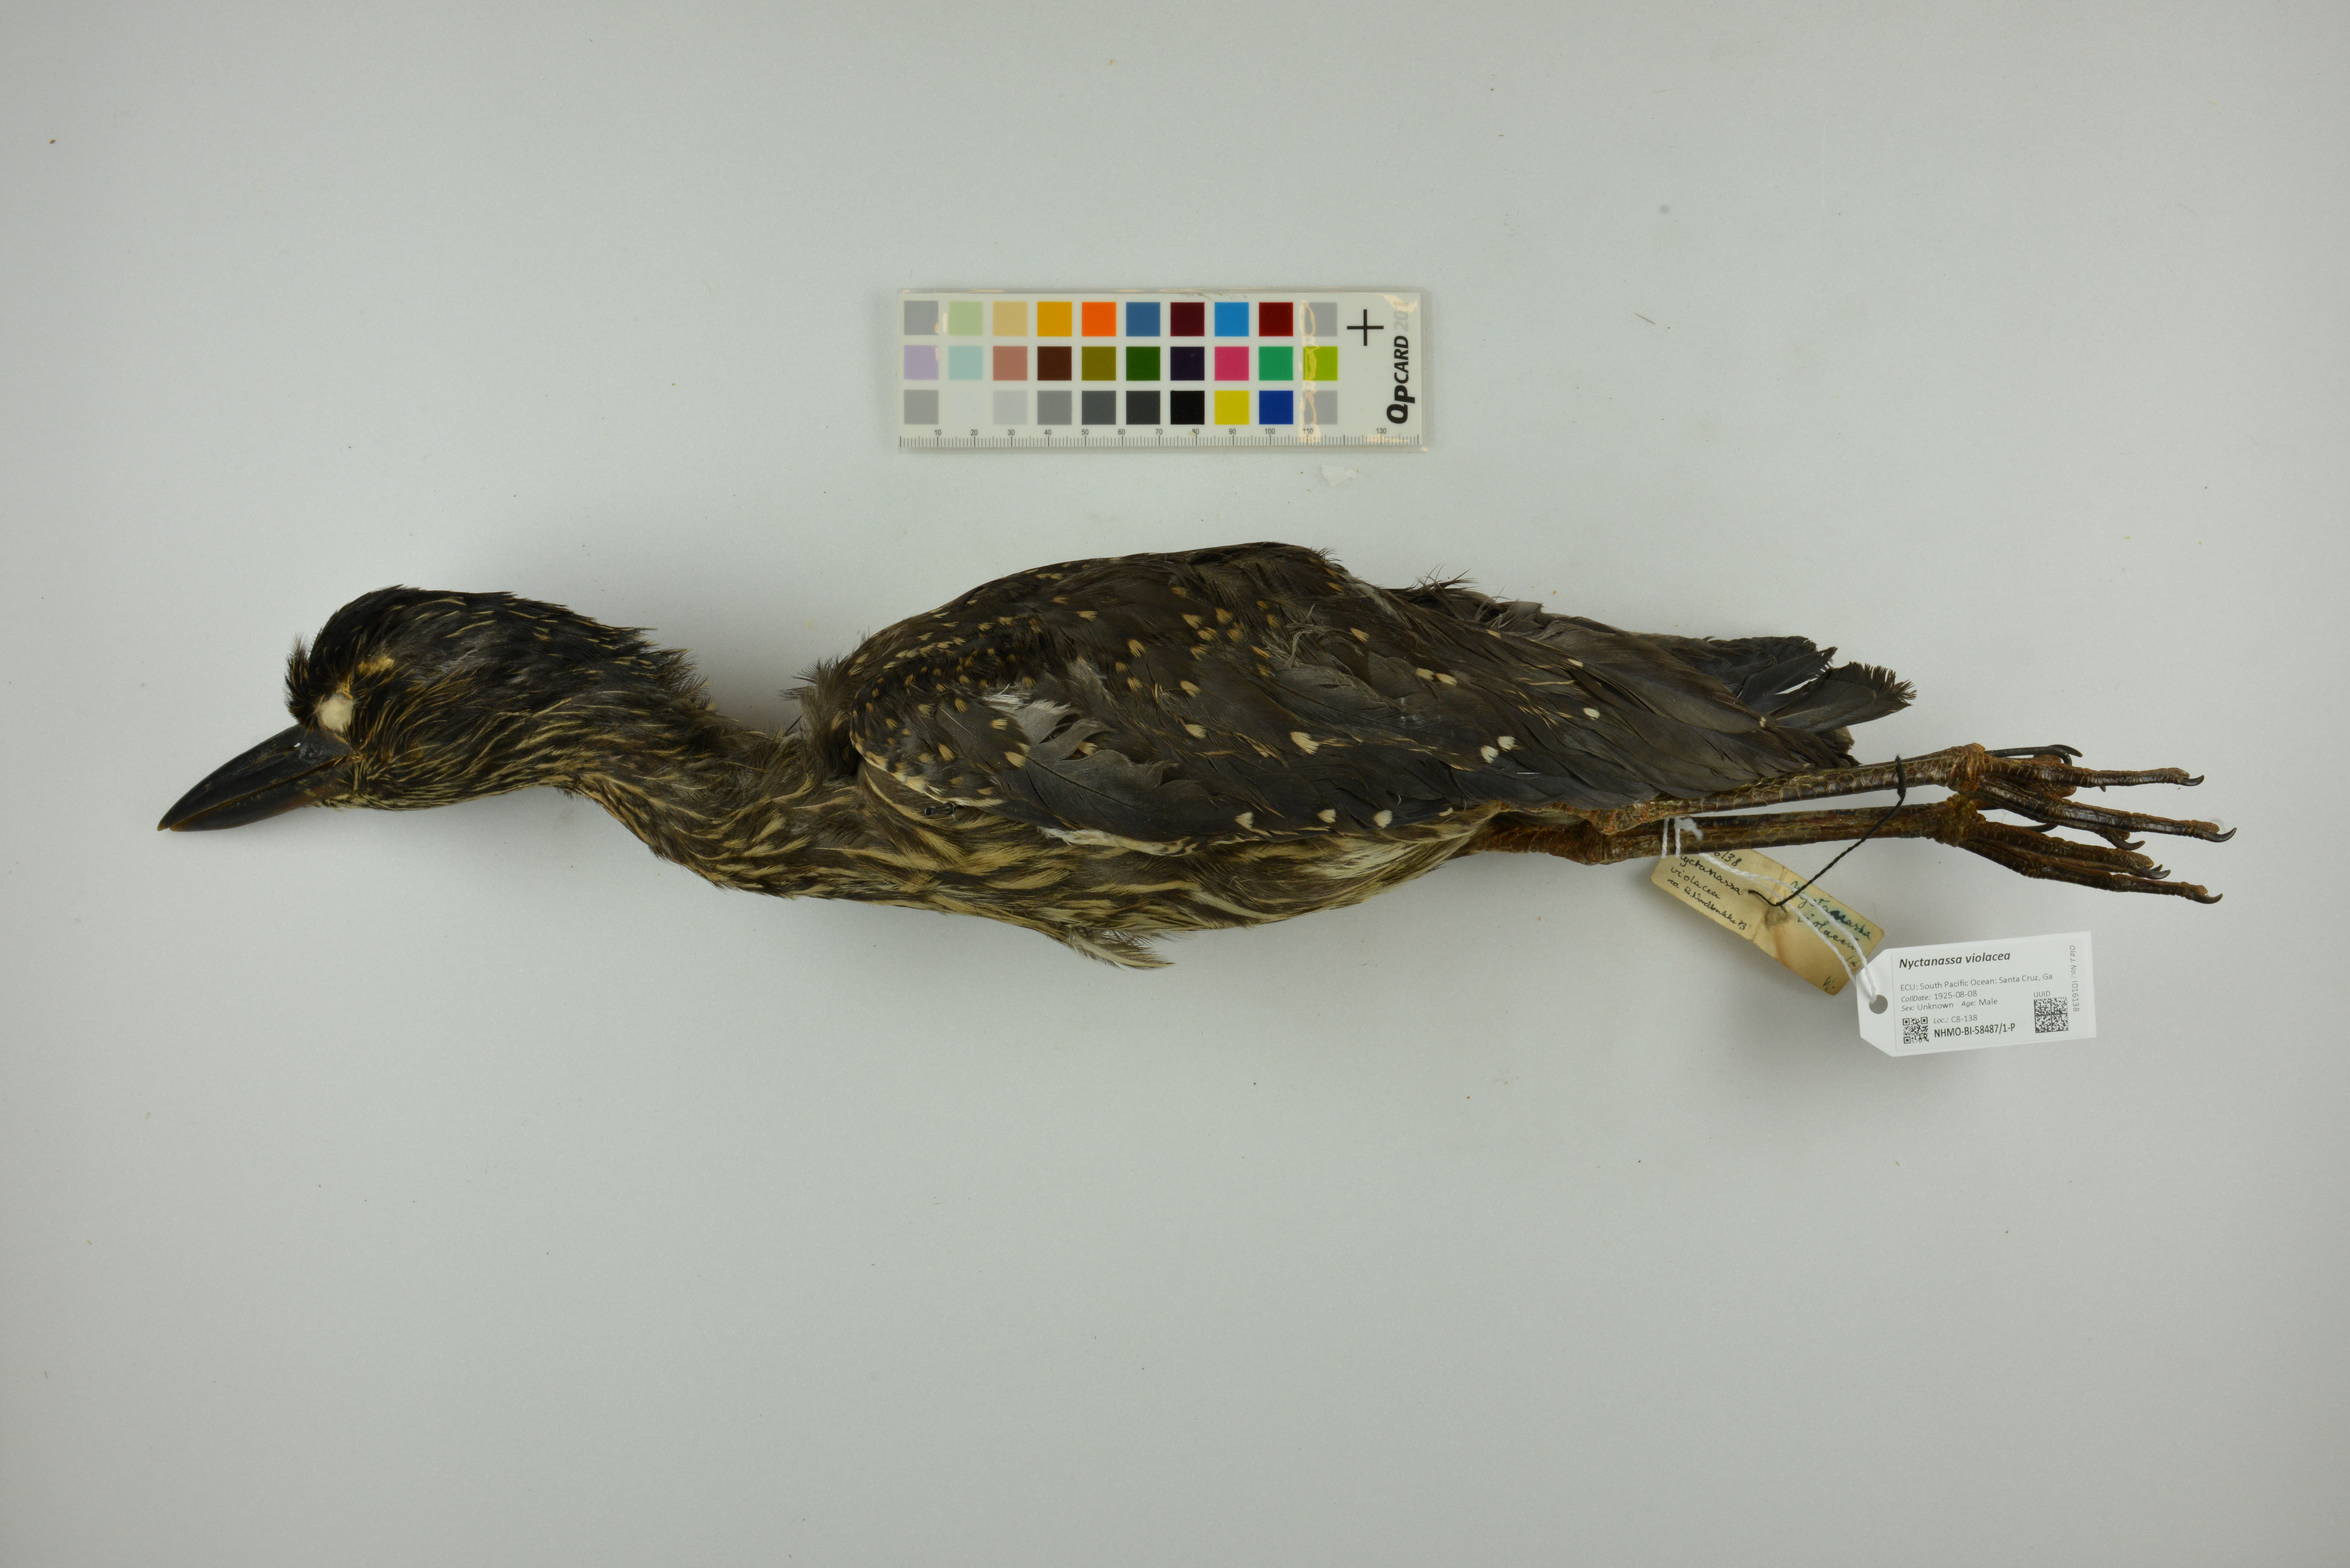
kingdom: Animalia
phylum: Chordata
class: Aves
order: Pelecaniformes
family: Ardeidae
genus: Nyctanassa
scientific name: Nyctanassa violacea
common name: Yellow-crowned night heron
